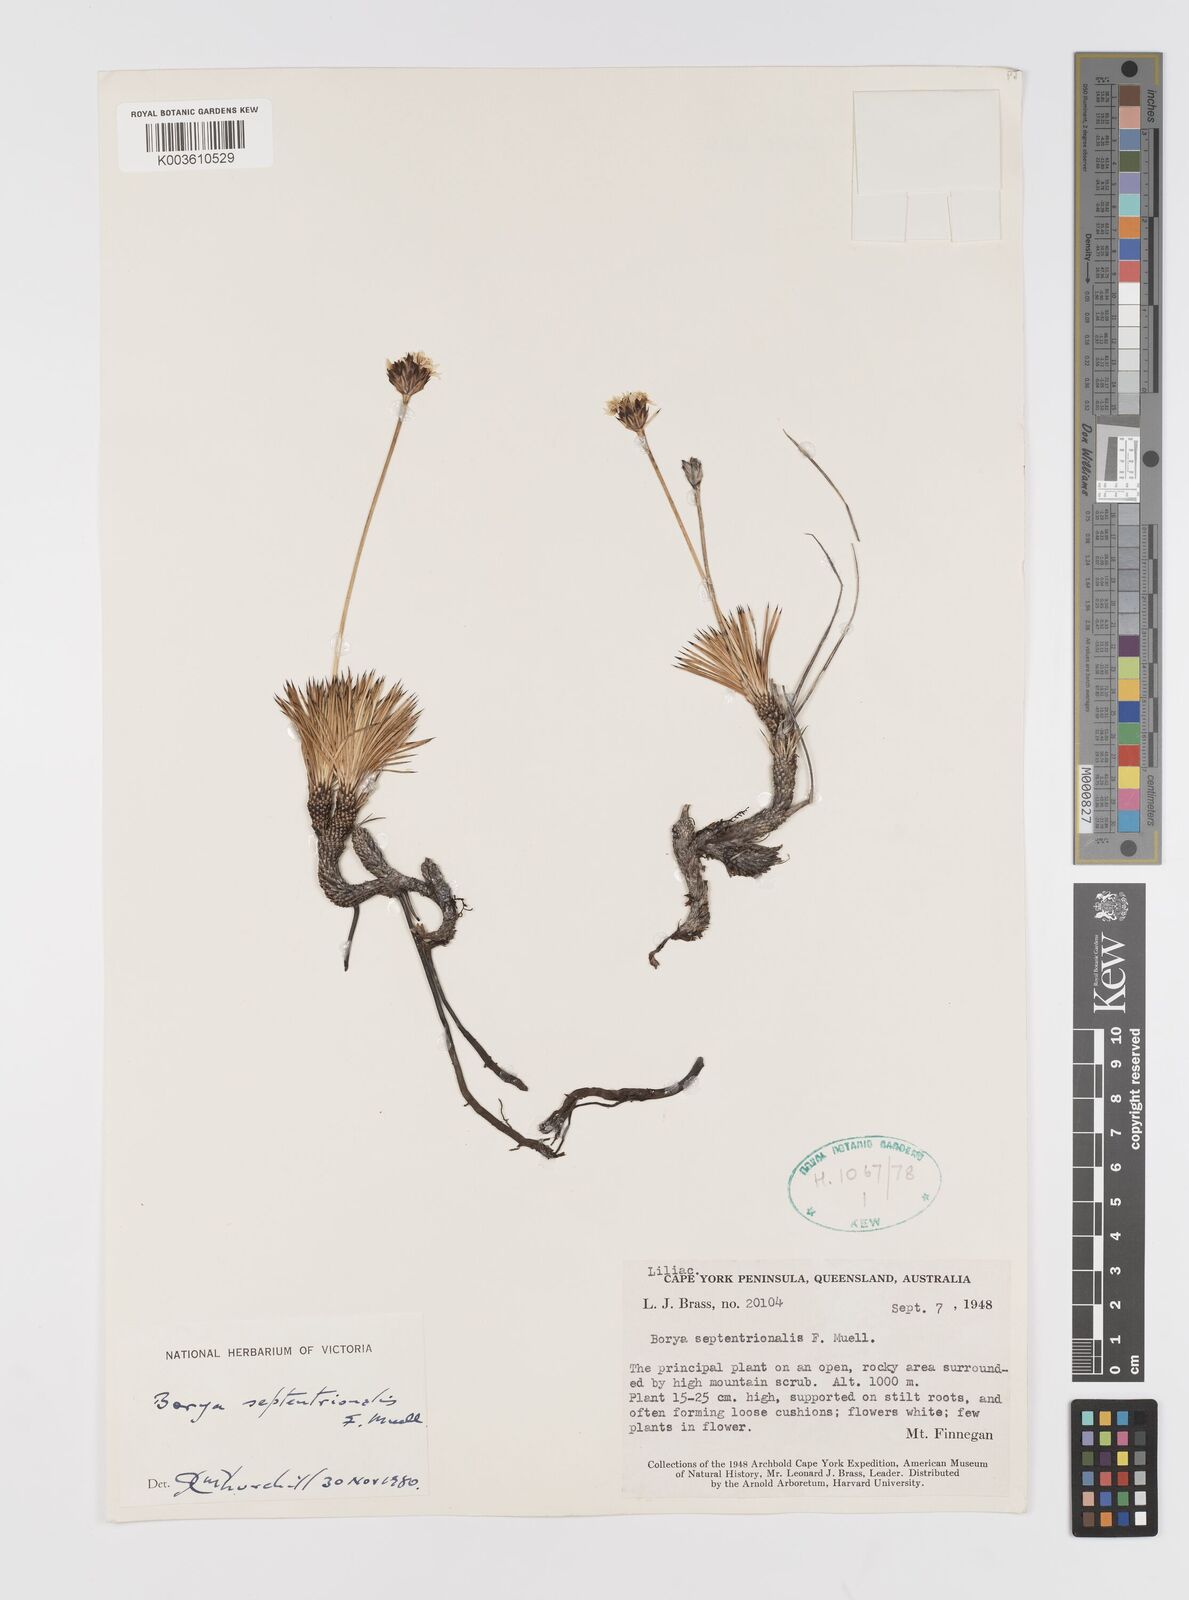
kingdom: Plantae
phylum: Tracheophyta
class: Liliopsida
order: Asparagales
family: Boryaceae
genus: Borya
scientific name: Borya septentrionalis
